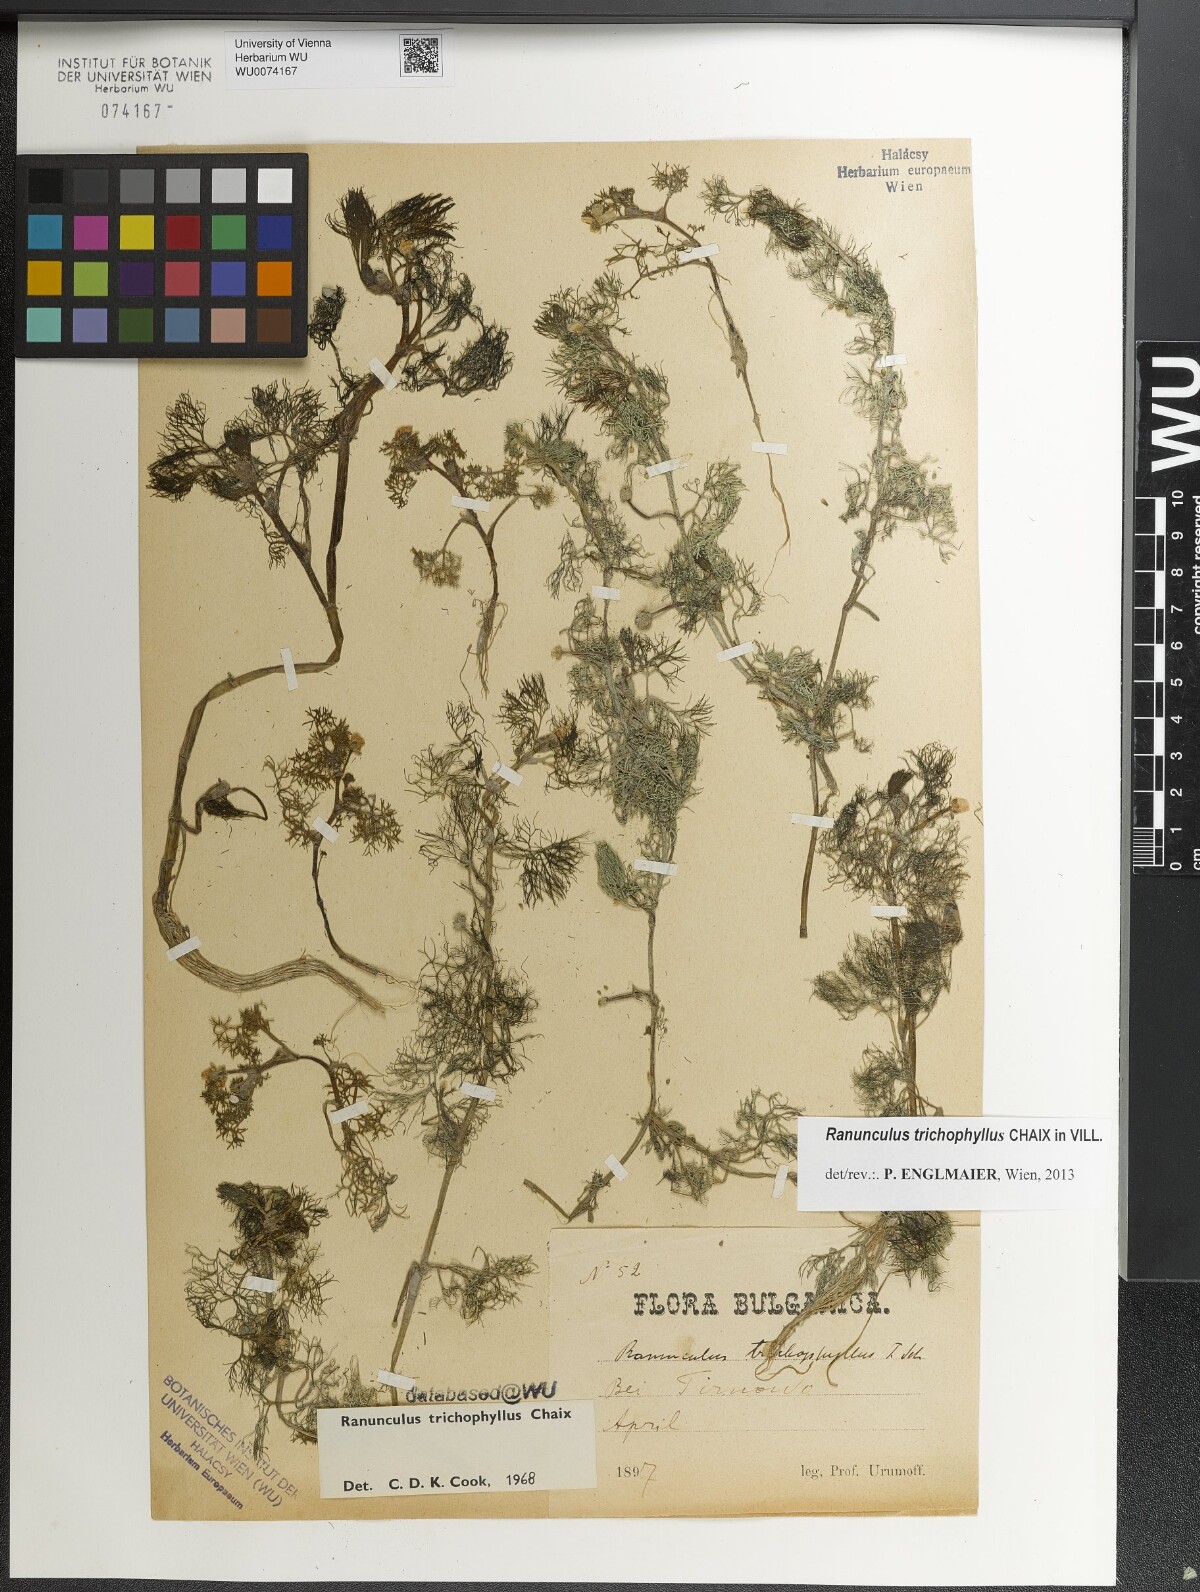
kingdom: Plantae
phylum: Tracheophyta
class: Magnoliopsida
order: Ranunculales
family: Ranunculaceae
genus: Ranunculus
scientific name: Ranunculus trichophyllus
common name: Thread-leaved water-crowfoot
